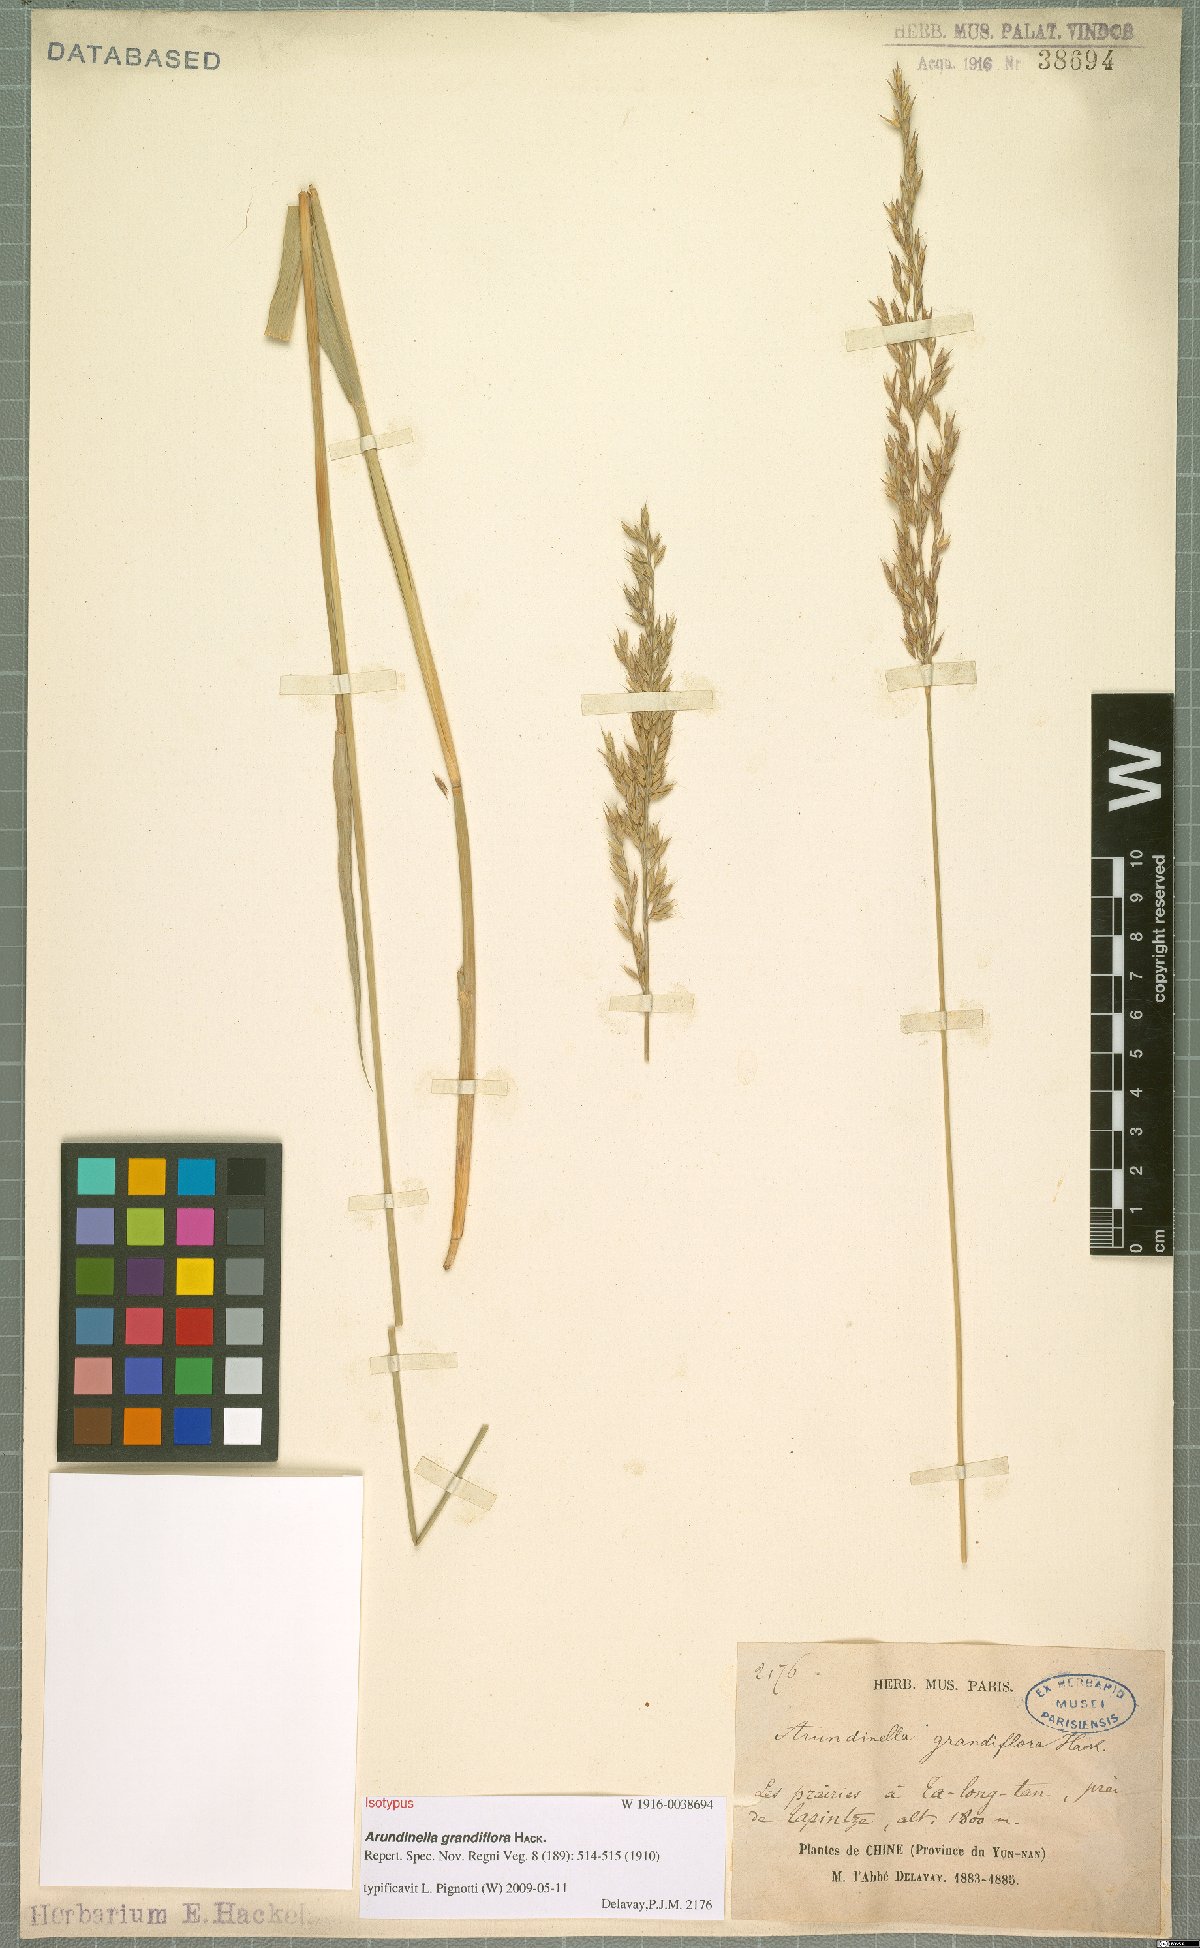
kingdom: Plantae
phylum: Tracheophyta
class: Liliopsida
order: Poales
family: Poaceae
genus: Arundinella
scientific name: Arundinella grandiflora
